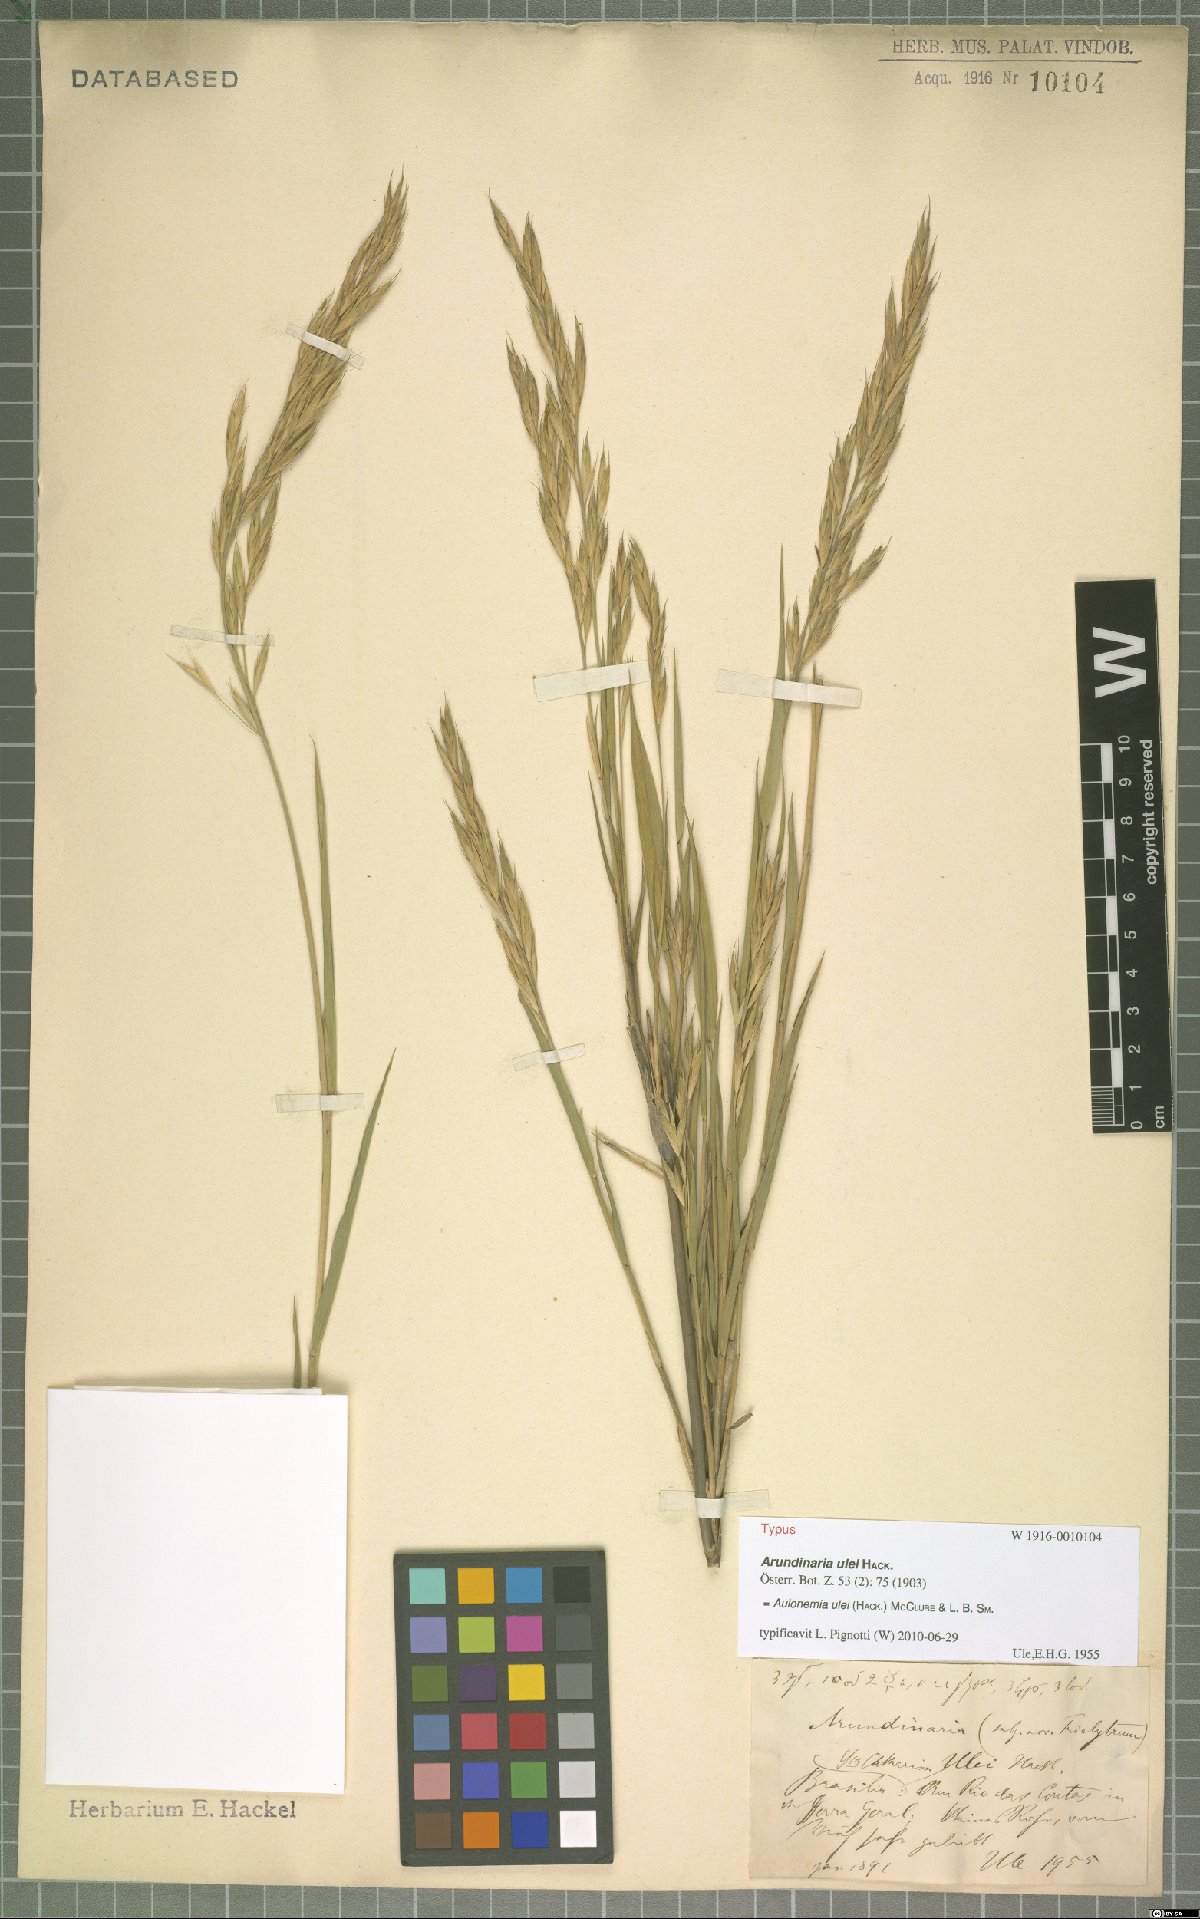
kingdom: Plantae
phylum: Tracheophyta
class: Liliopsida
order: Poales
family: Poaceae
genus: Cambajuva
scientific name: Cambajuva ulei
